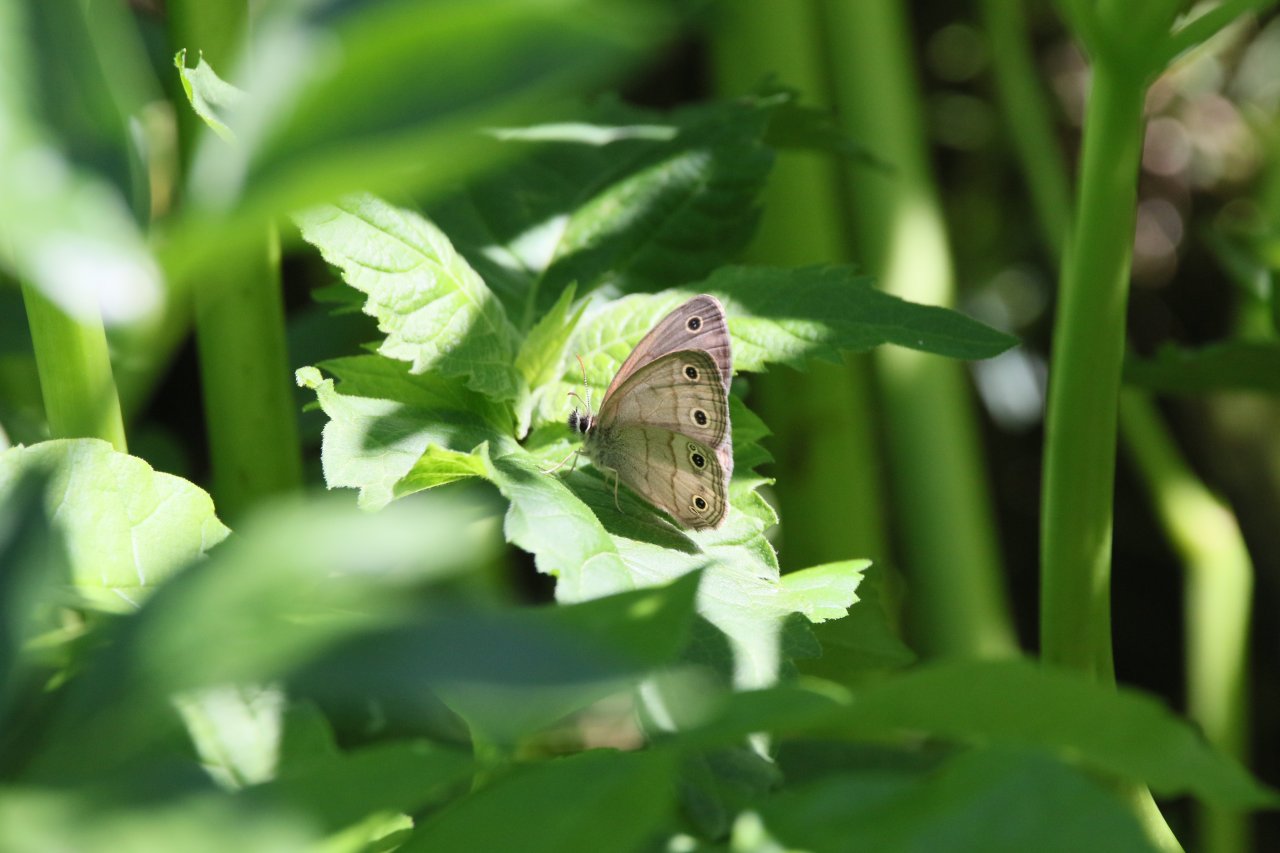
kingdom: Animalia
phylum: Arthropoda
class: Insecta
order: Lepidoptera
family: Nymphalidae
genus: Euptychia
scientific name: Euptychia cymela
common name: Little Wood Satyr
